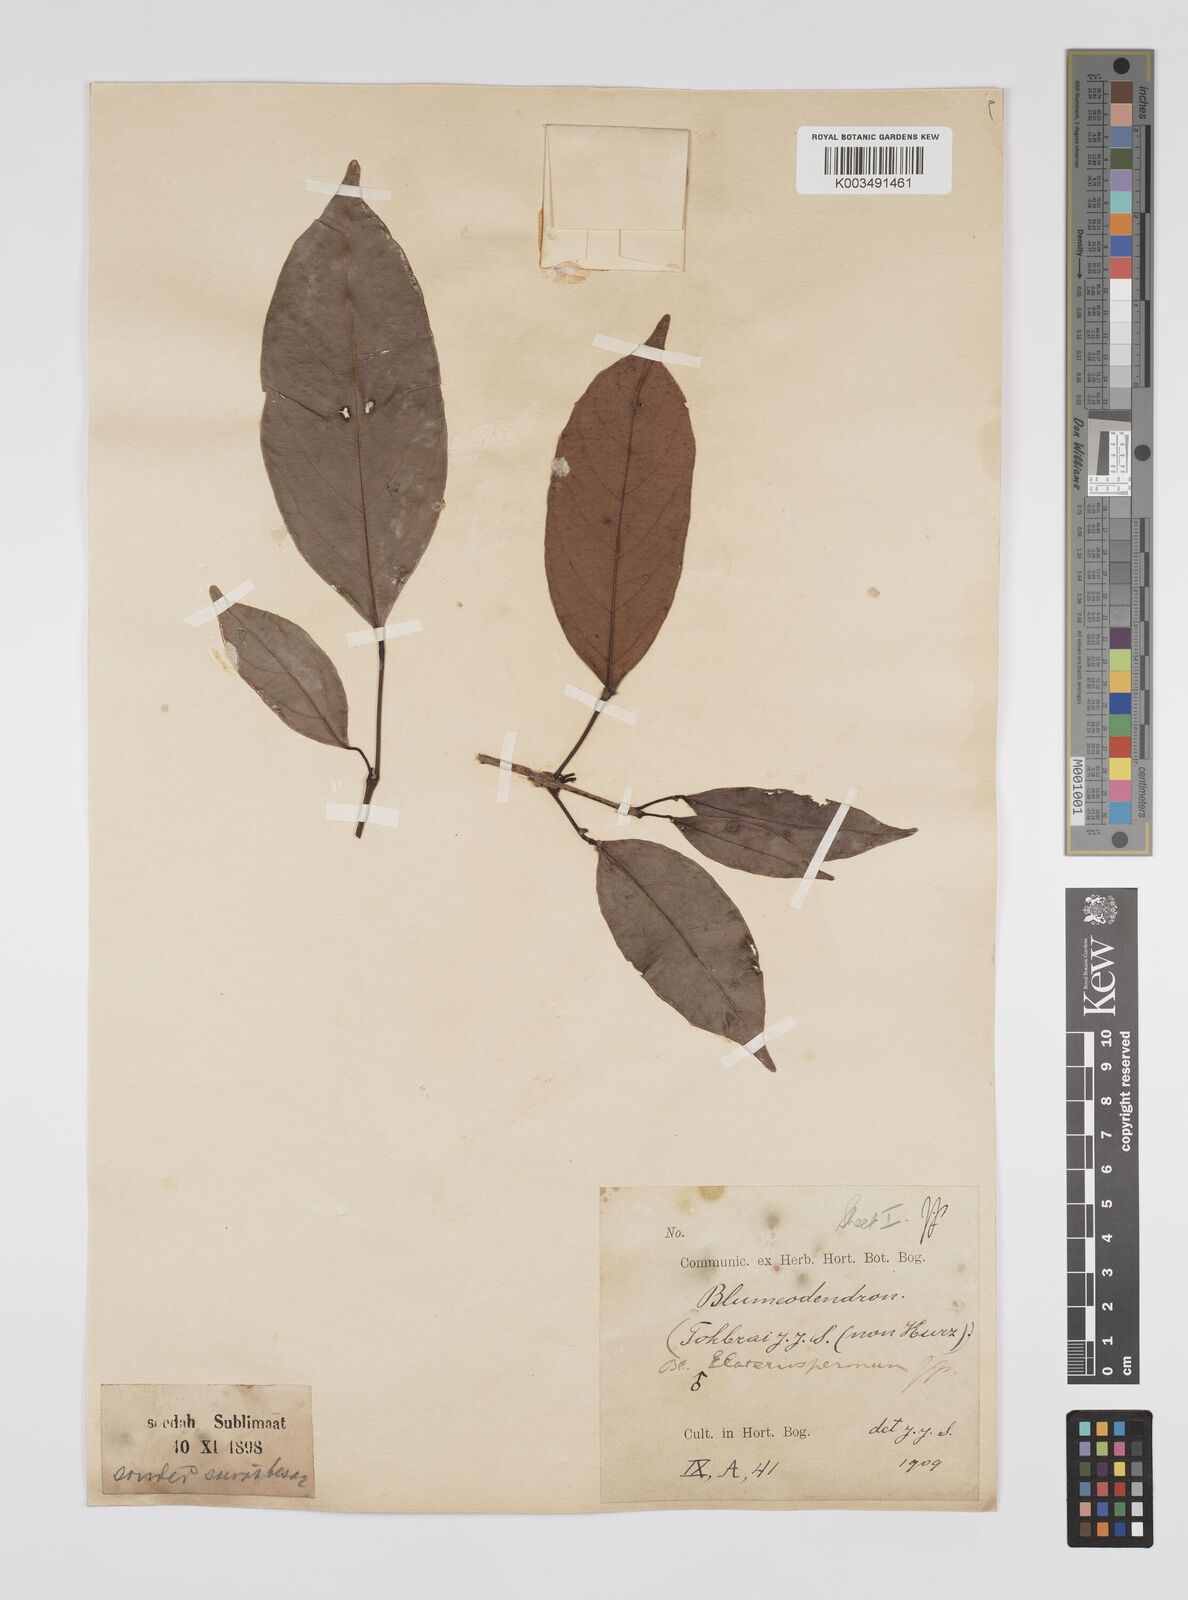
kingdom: Plantae
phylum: Tracheophyta
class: Magnoliopsida
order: Malpighiales
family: Euphorbiaceae
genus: Blumeodendron
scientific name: Blumeodendron tokbrai
